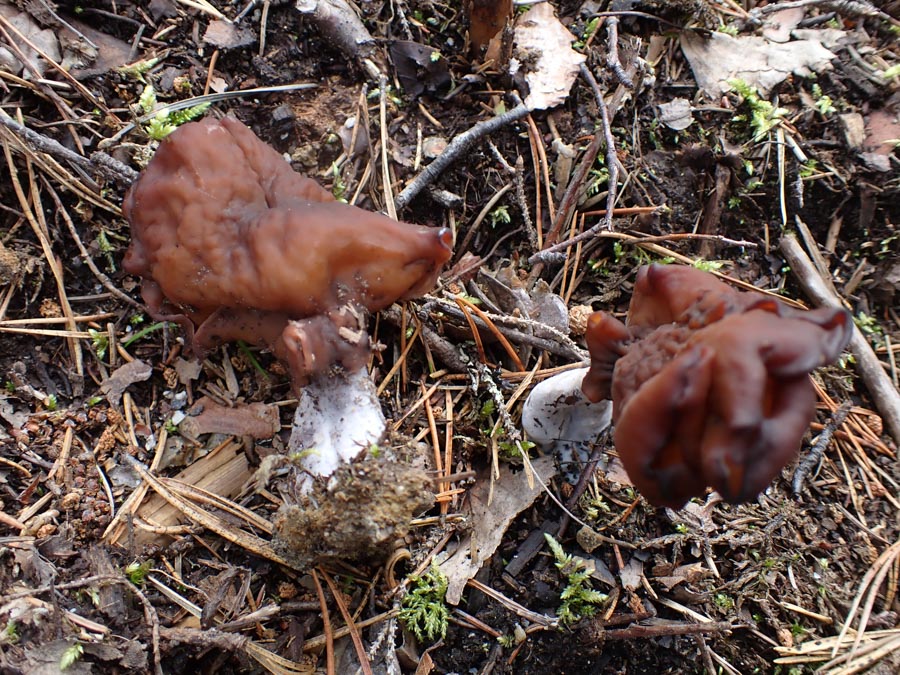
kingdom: Fungi
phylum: Ascomycota
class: Pezizomycetes
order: Pezizales
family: Discinaceae
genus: Gyromitra
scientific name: Gyromitra infula
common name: bispehue-stenmorkel
